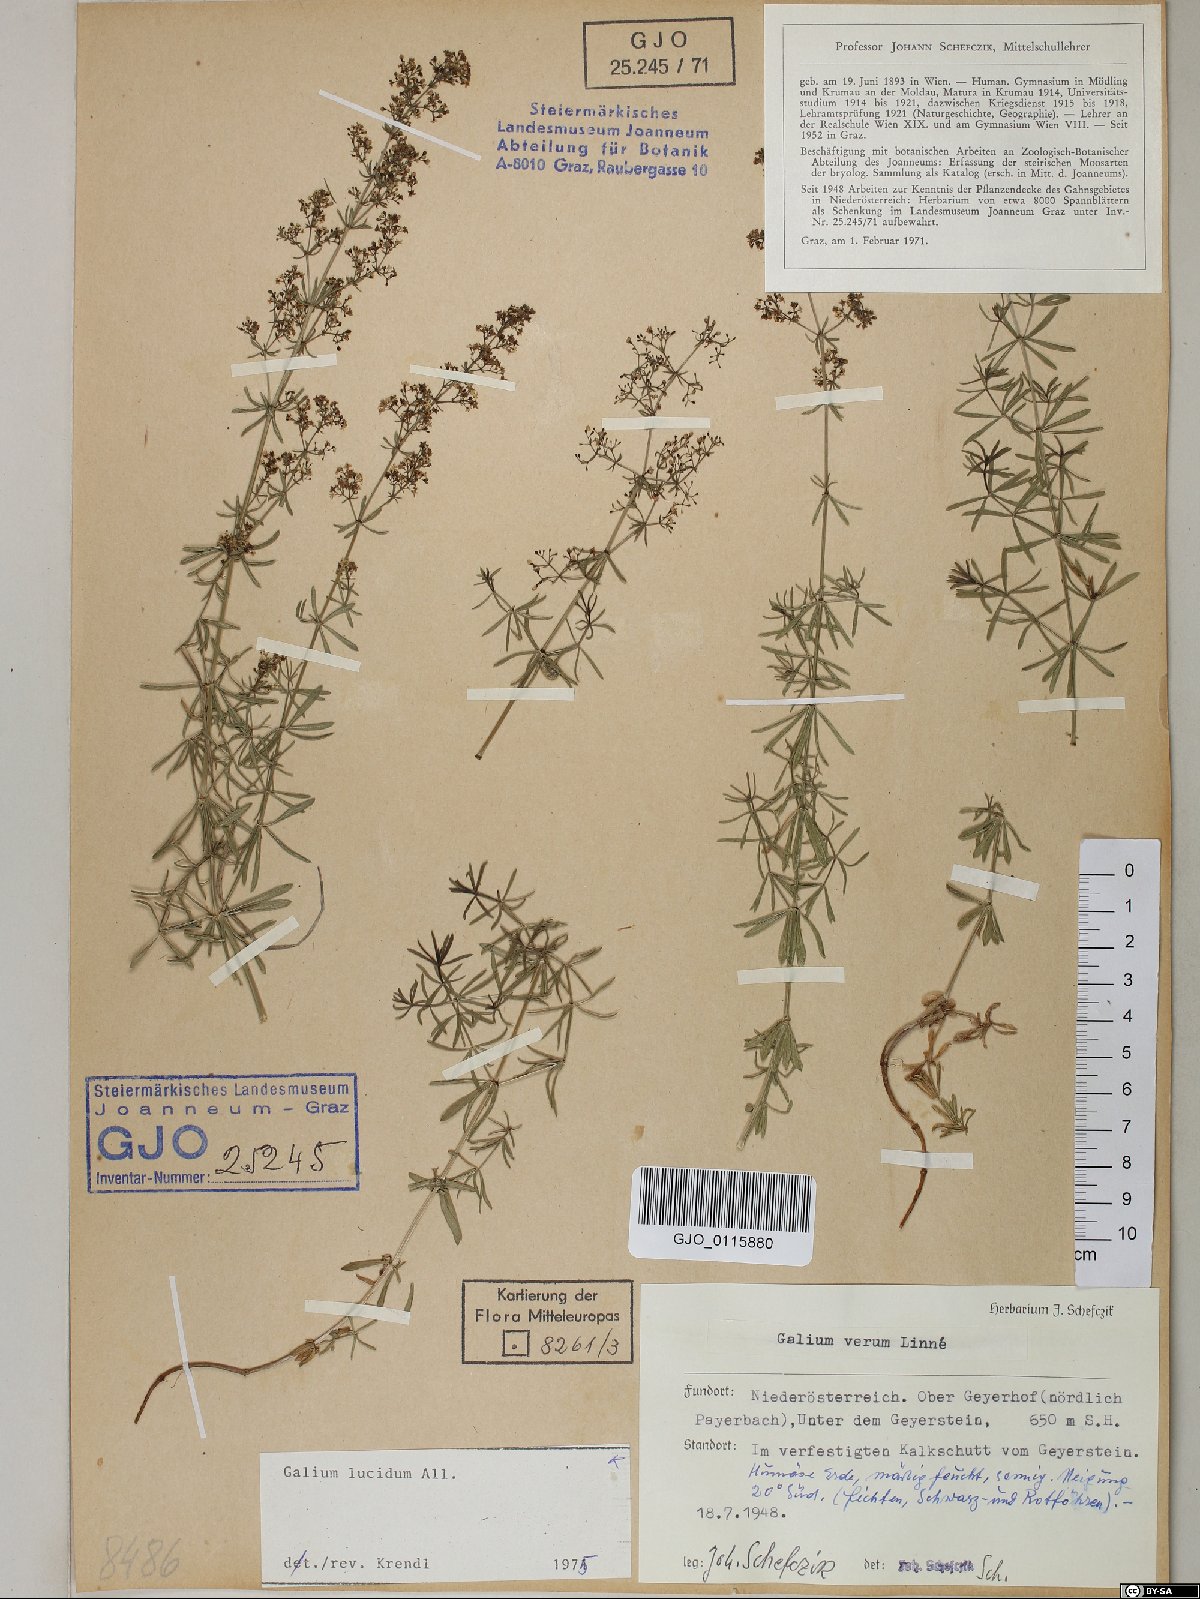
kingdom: Plantae
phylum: Tracheophyta
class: Magnoliopsida
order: Gentianales
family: Rubiaceae
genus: Galium
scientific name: Galium lucidum
